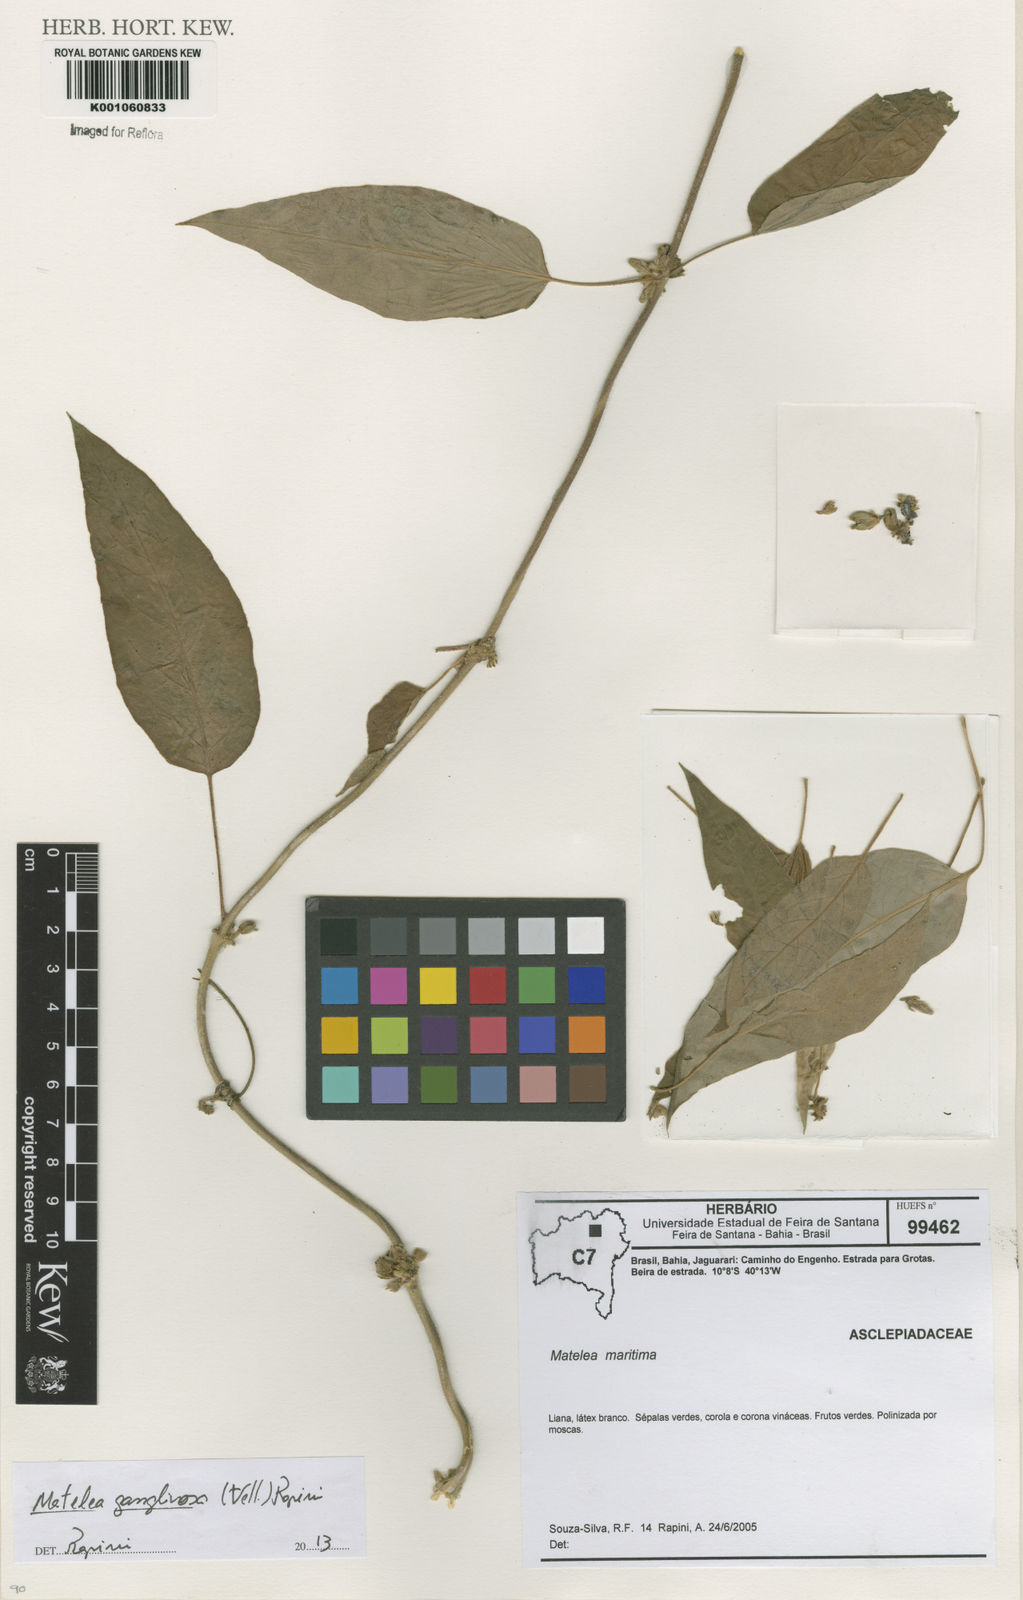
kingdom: Plantae
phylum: Tracheophyta
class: Magnoliopsida
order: Gentianales
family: Apocynaceae
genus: Ibatia
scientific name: Ibatia ganglinosa
